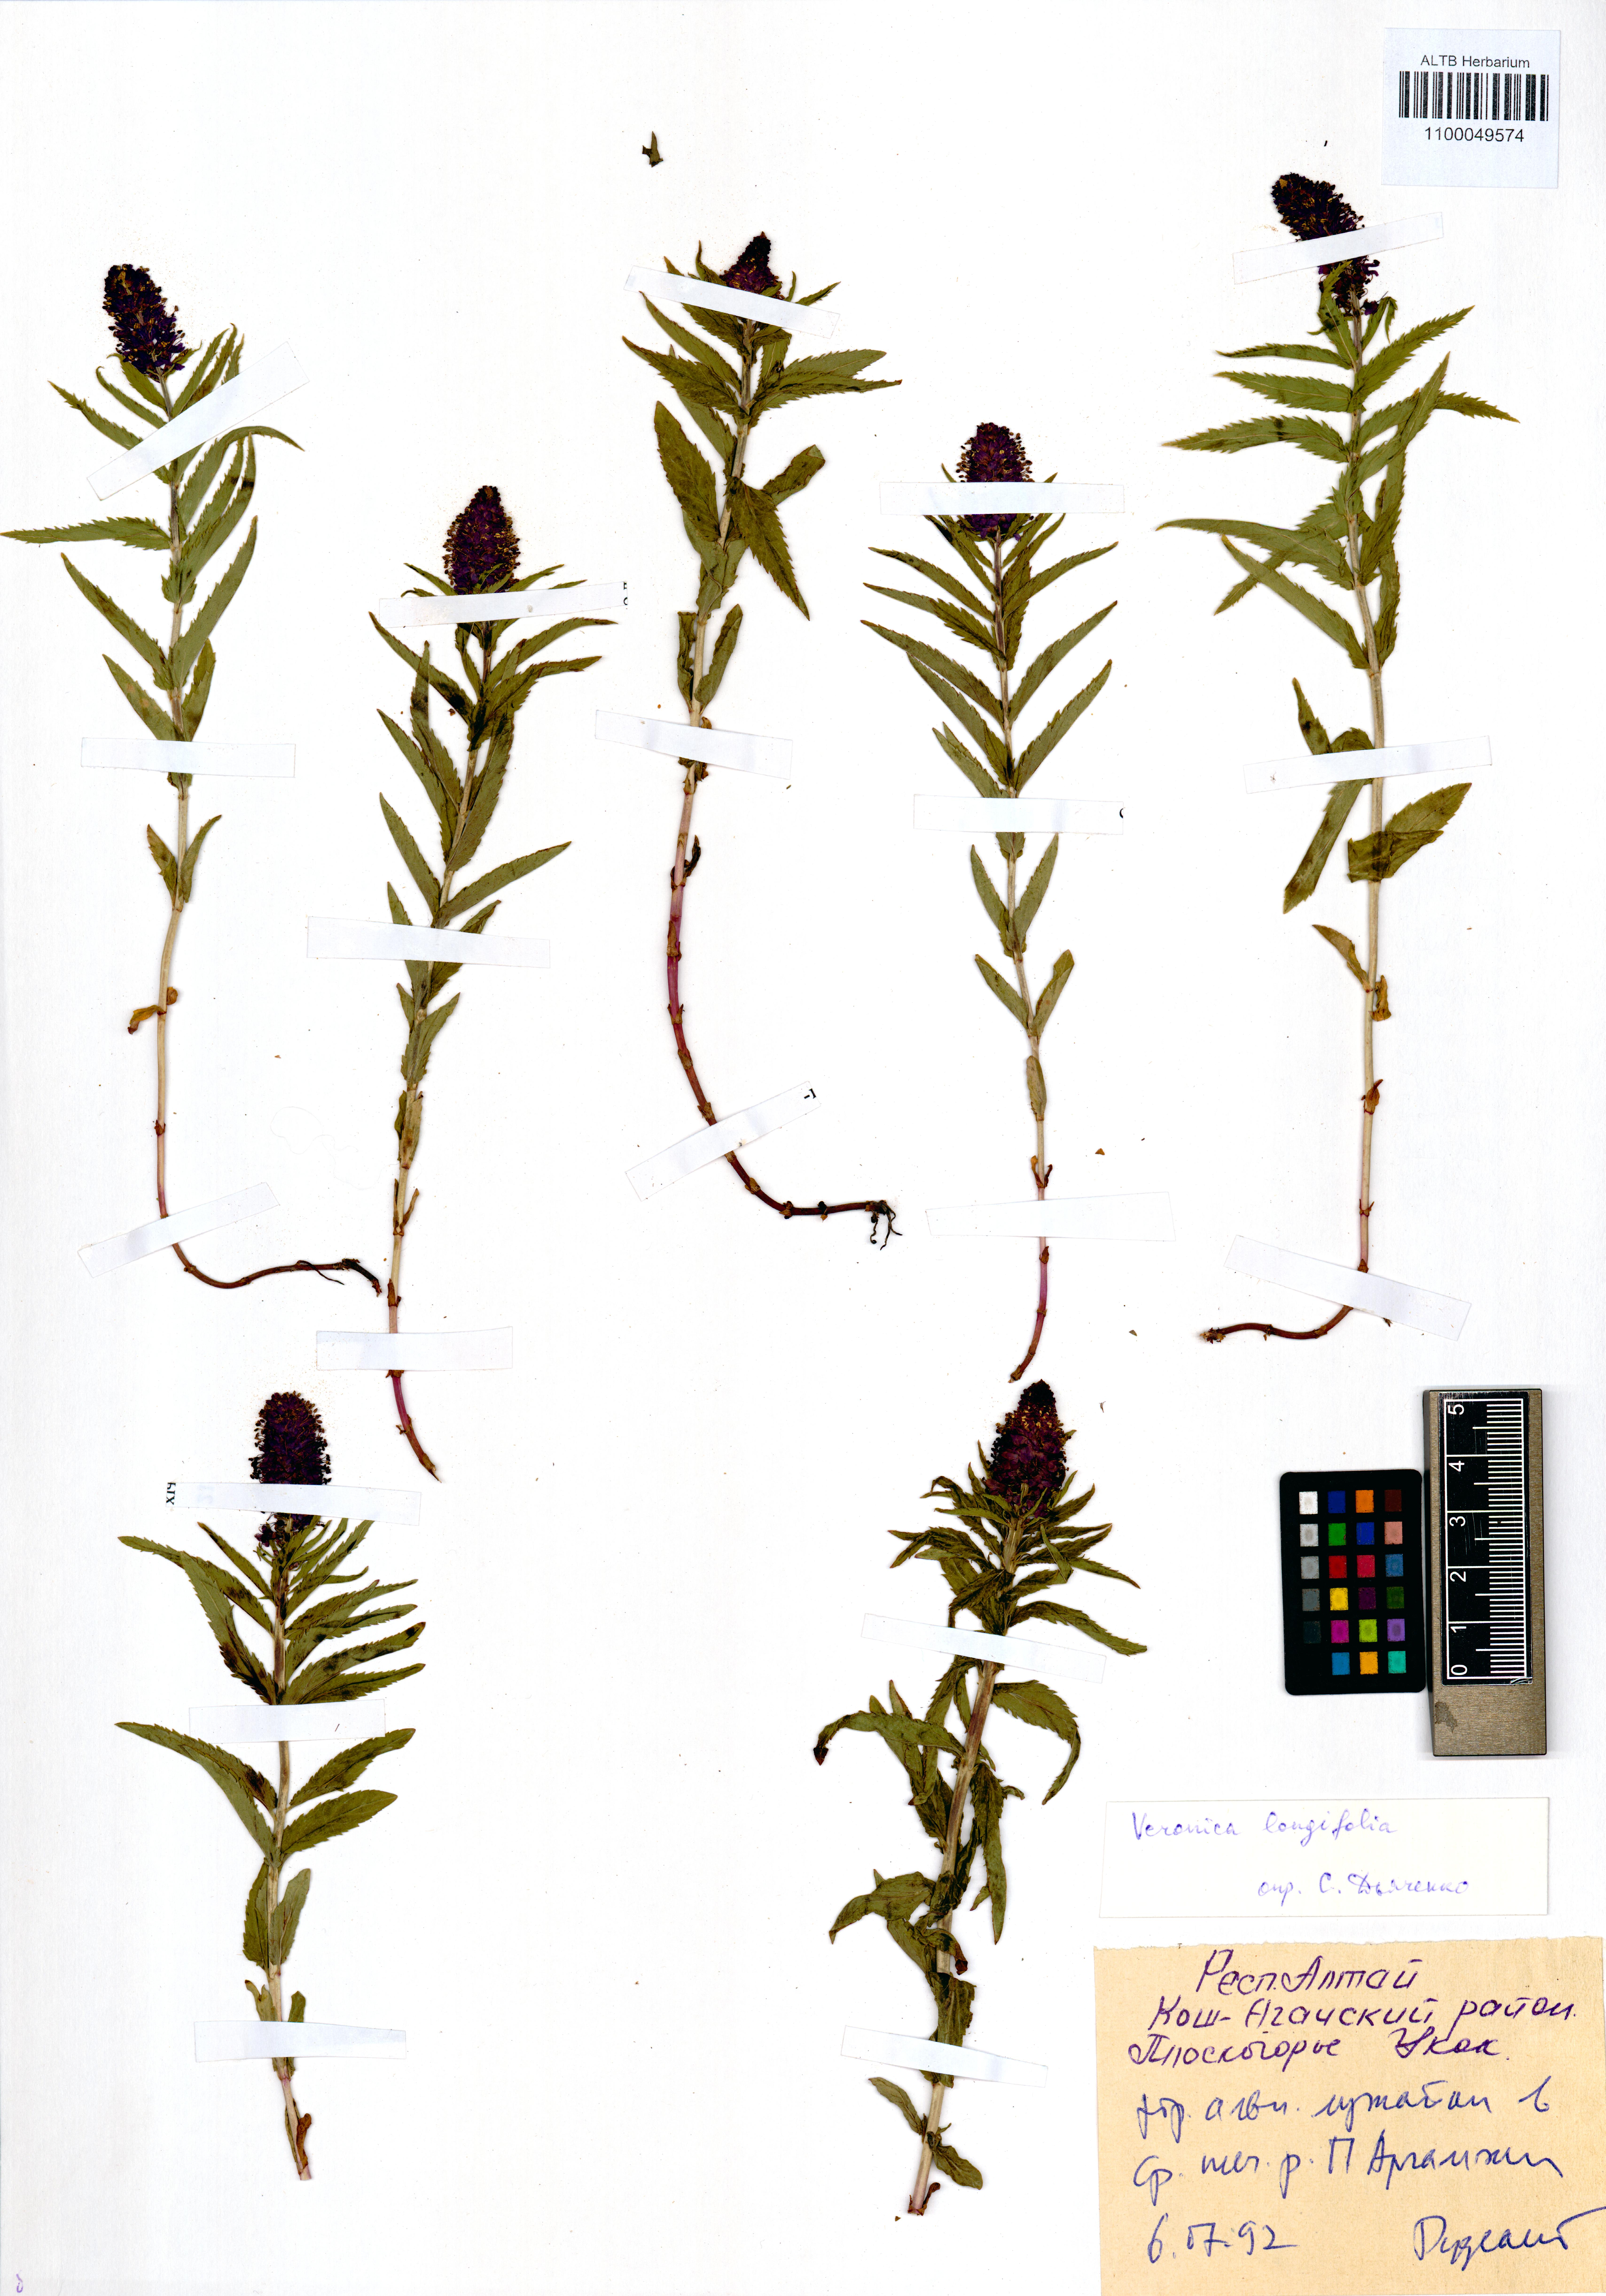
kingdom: Plantae
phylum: Tracheophyta
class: Magnoliopsida
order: Lamiales
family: Plantaginaceae
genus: Veronica
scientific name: Veronica longifolia
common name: Garden speedwell
